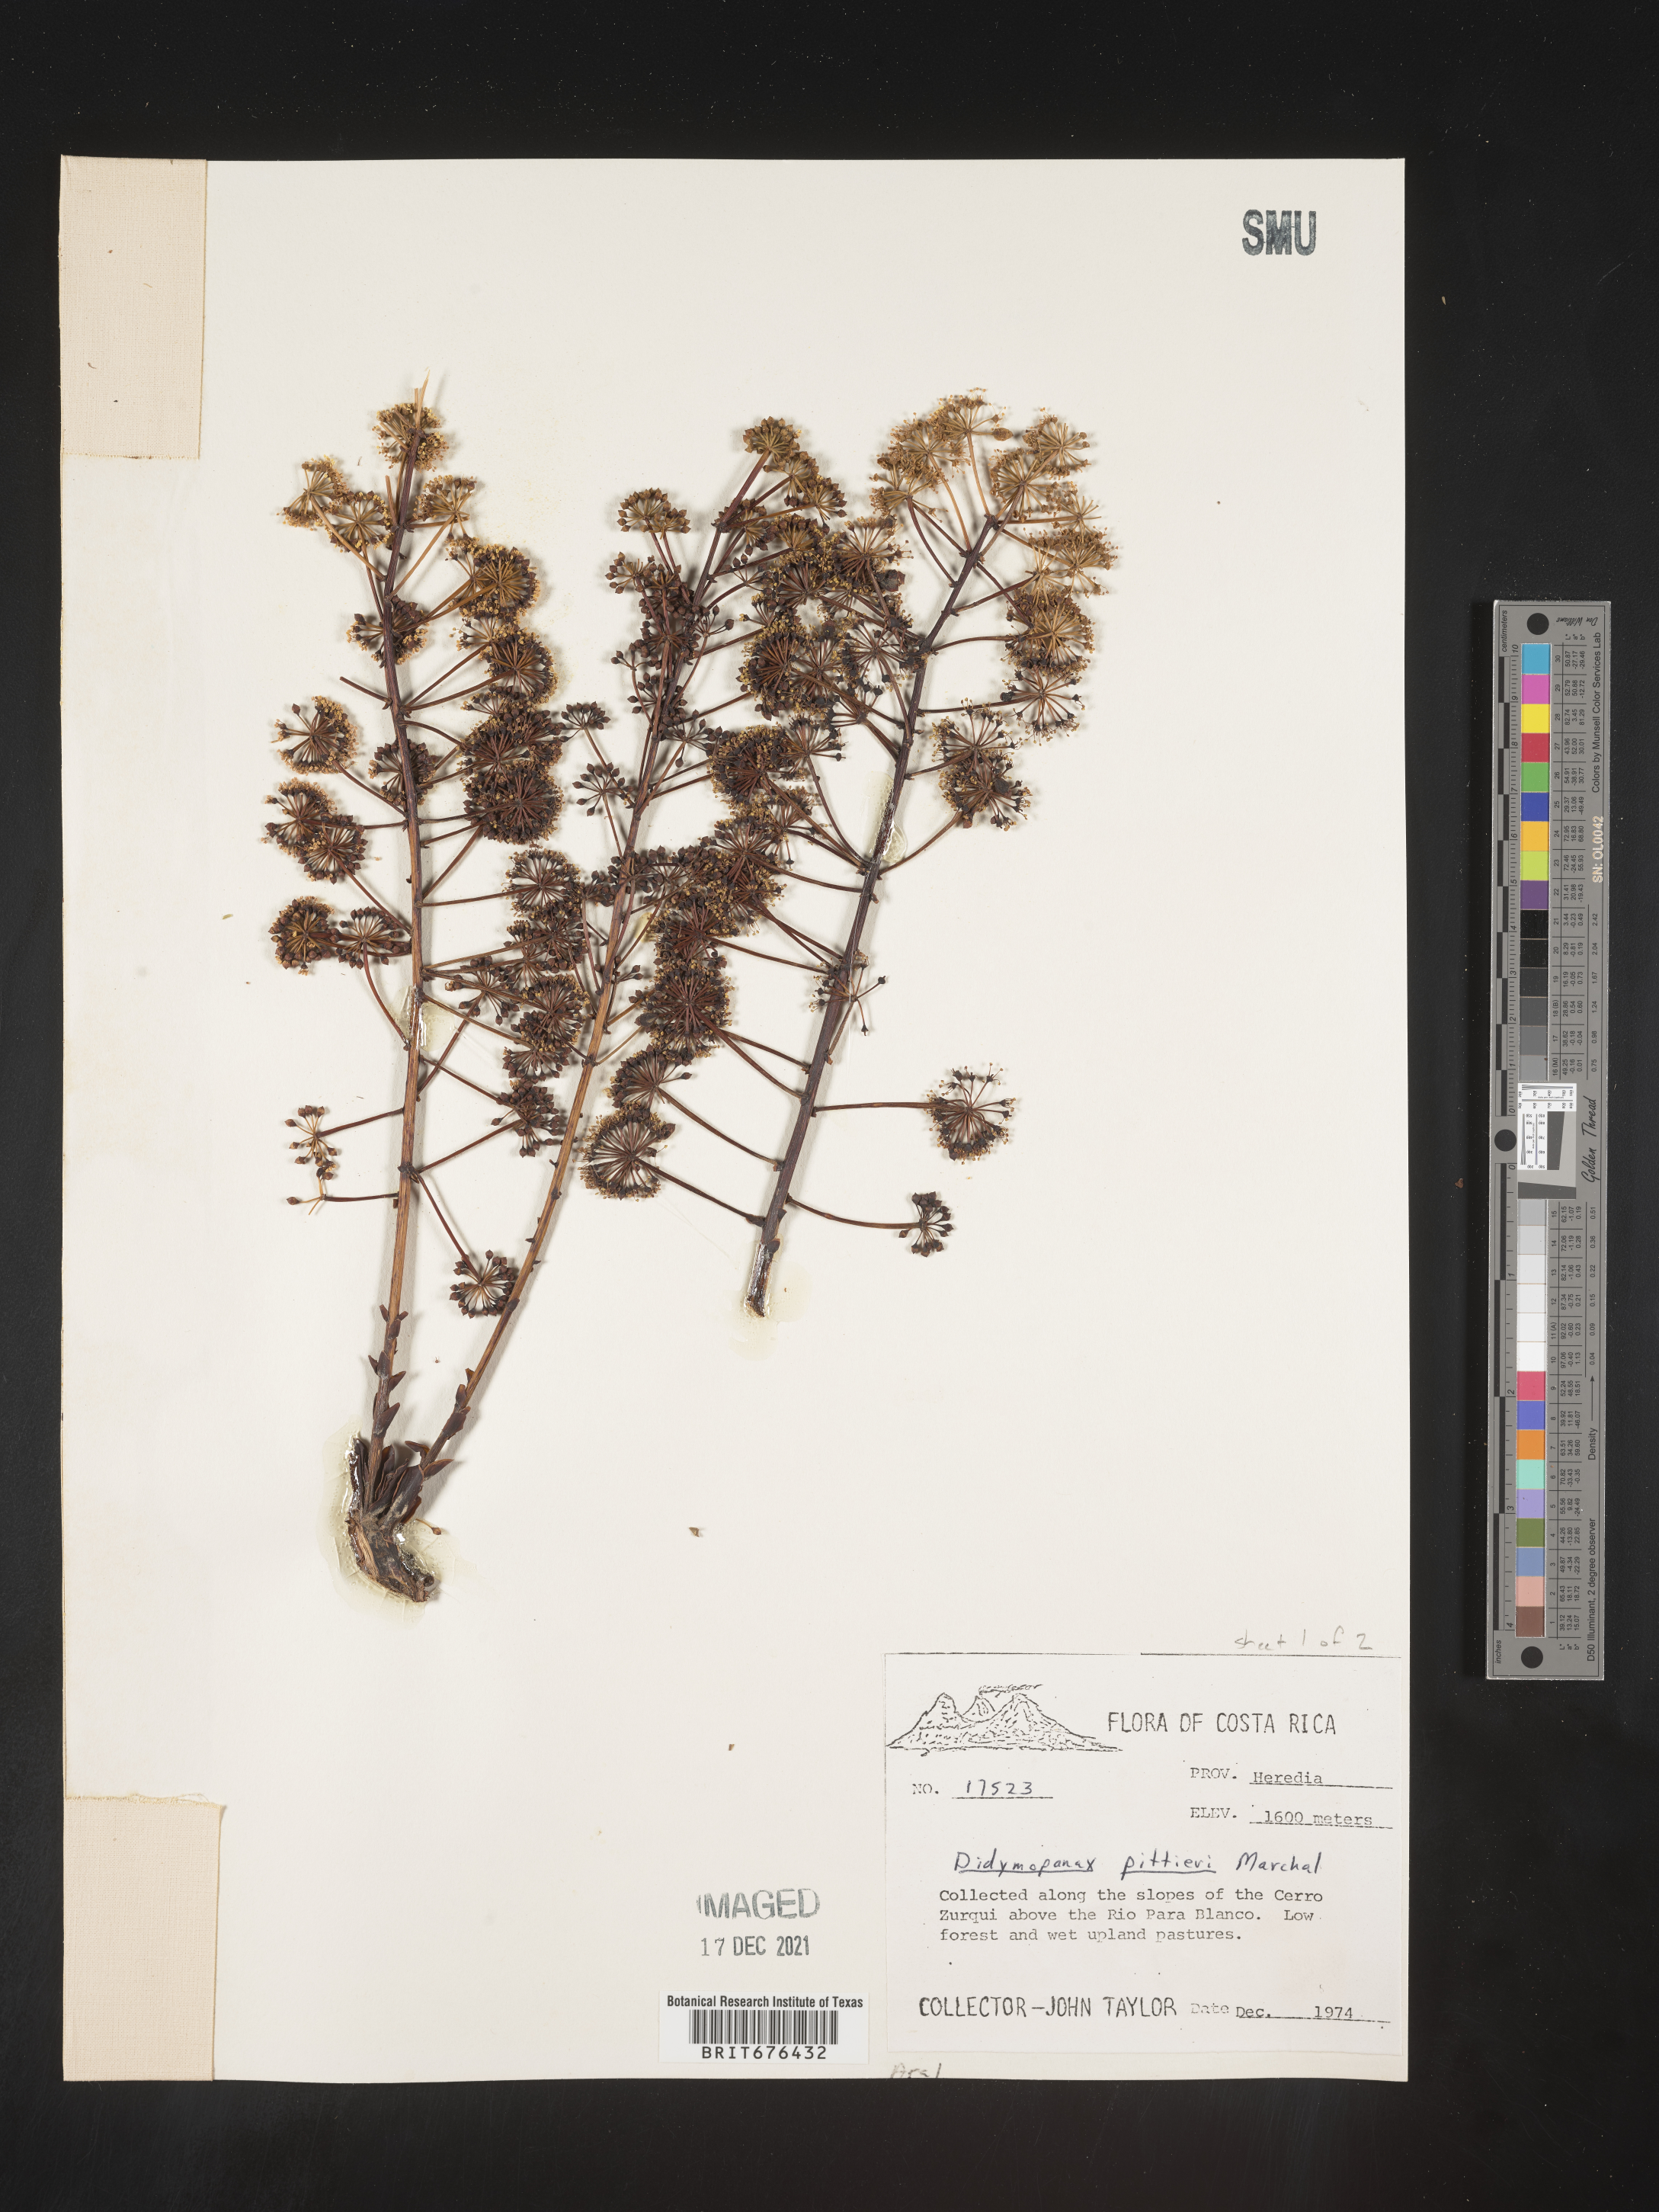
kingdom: Plantae
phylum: Tracheophyta
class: Magnoliopsida
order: Apiales
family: Araliaceae
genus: Didymopanax
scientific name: Didymopanax
